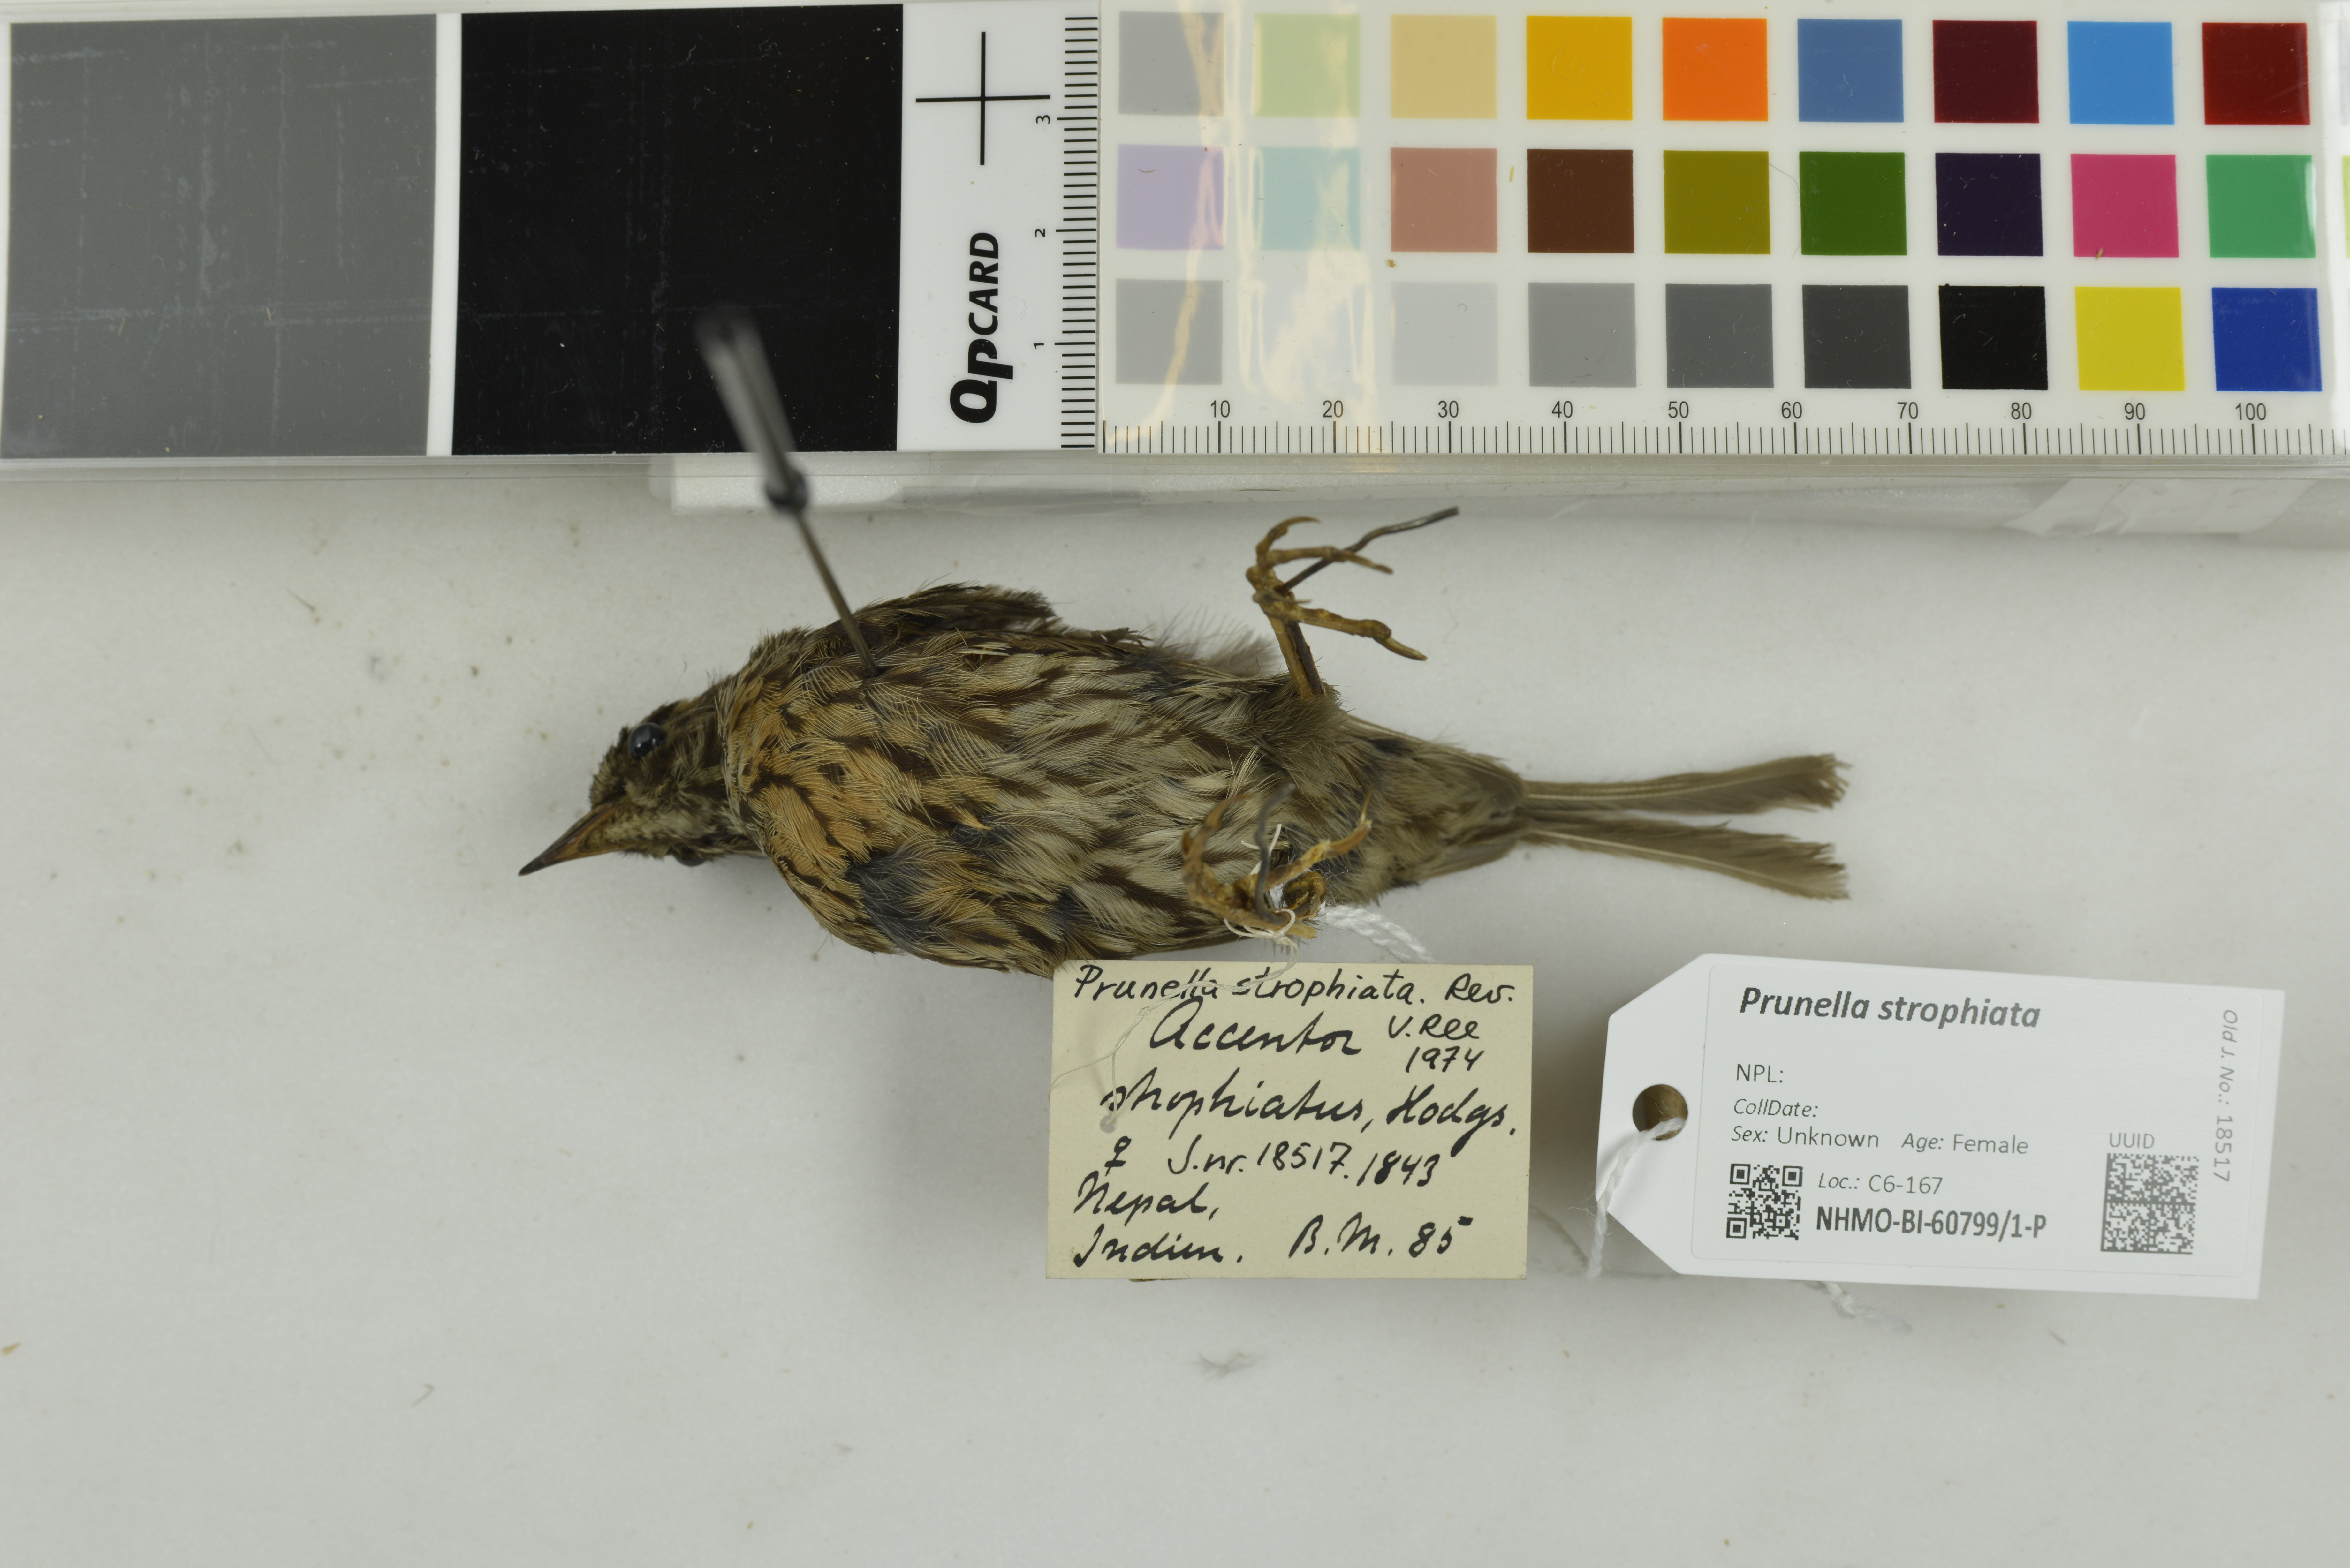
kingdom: Animalia
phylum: Chordata
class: Aves
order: Passeriformes
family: Prunellidae
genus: Prunella
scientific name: Prunella strophiata
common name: Rufous-breasted accentor
